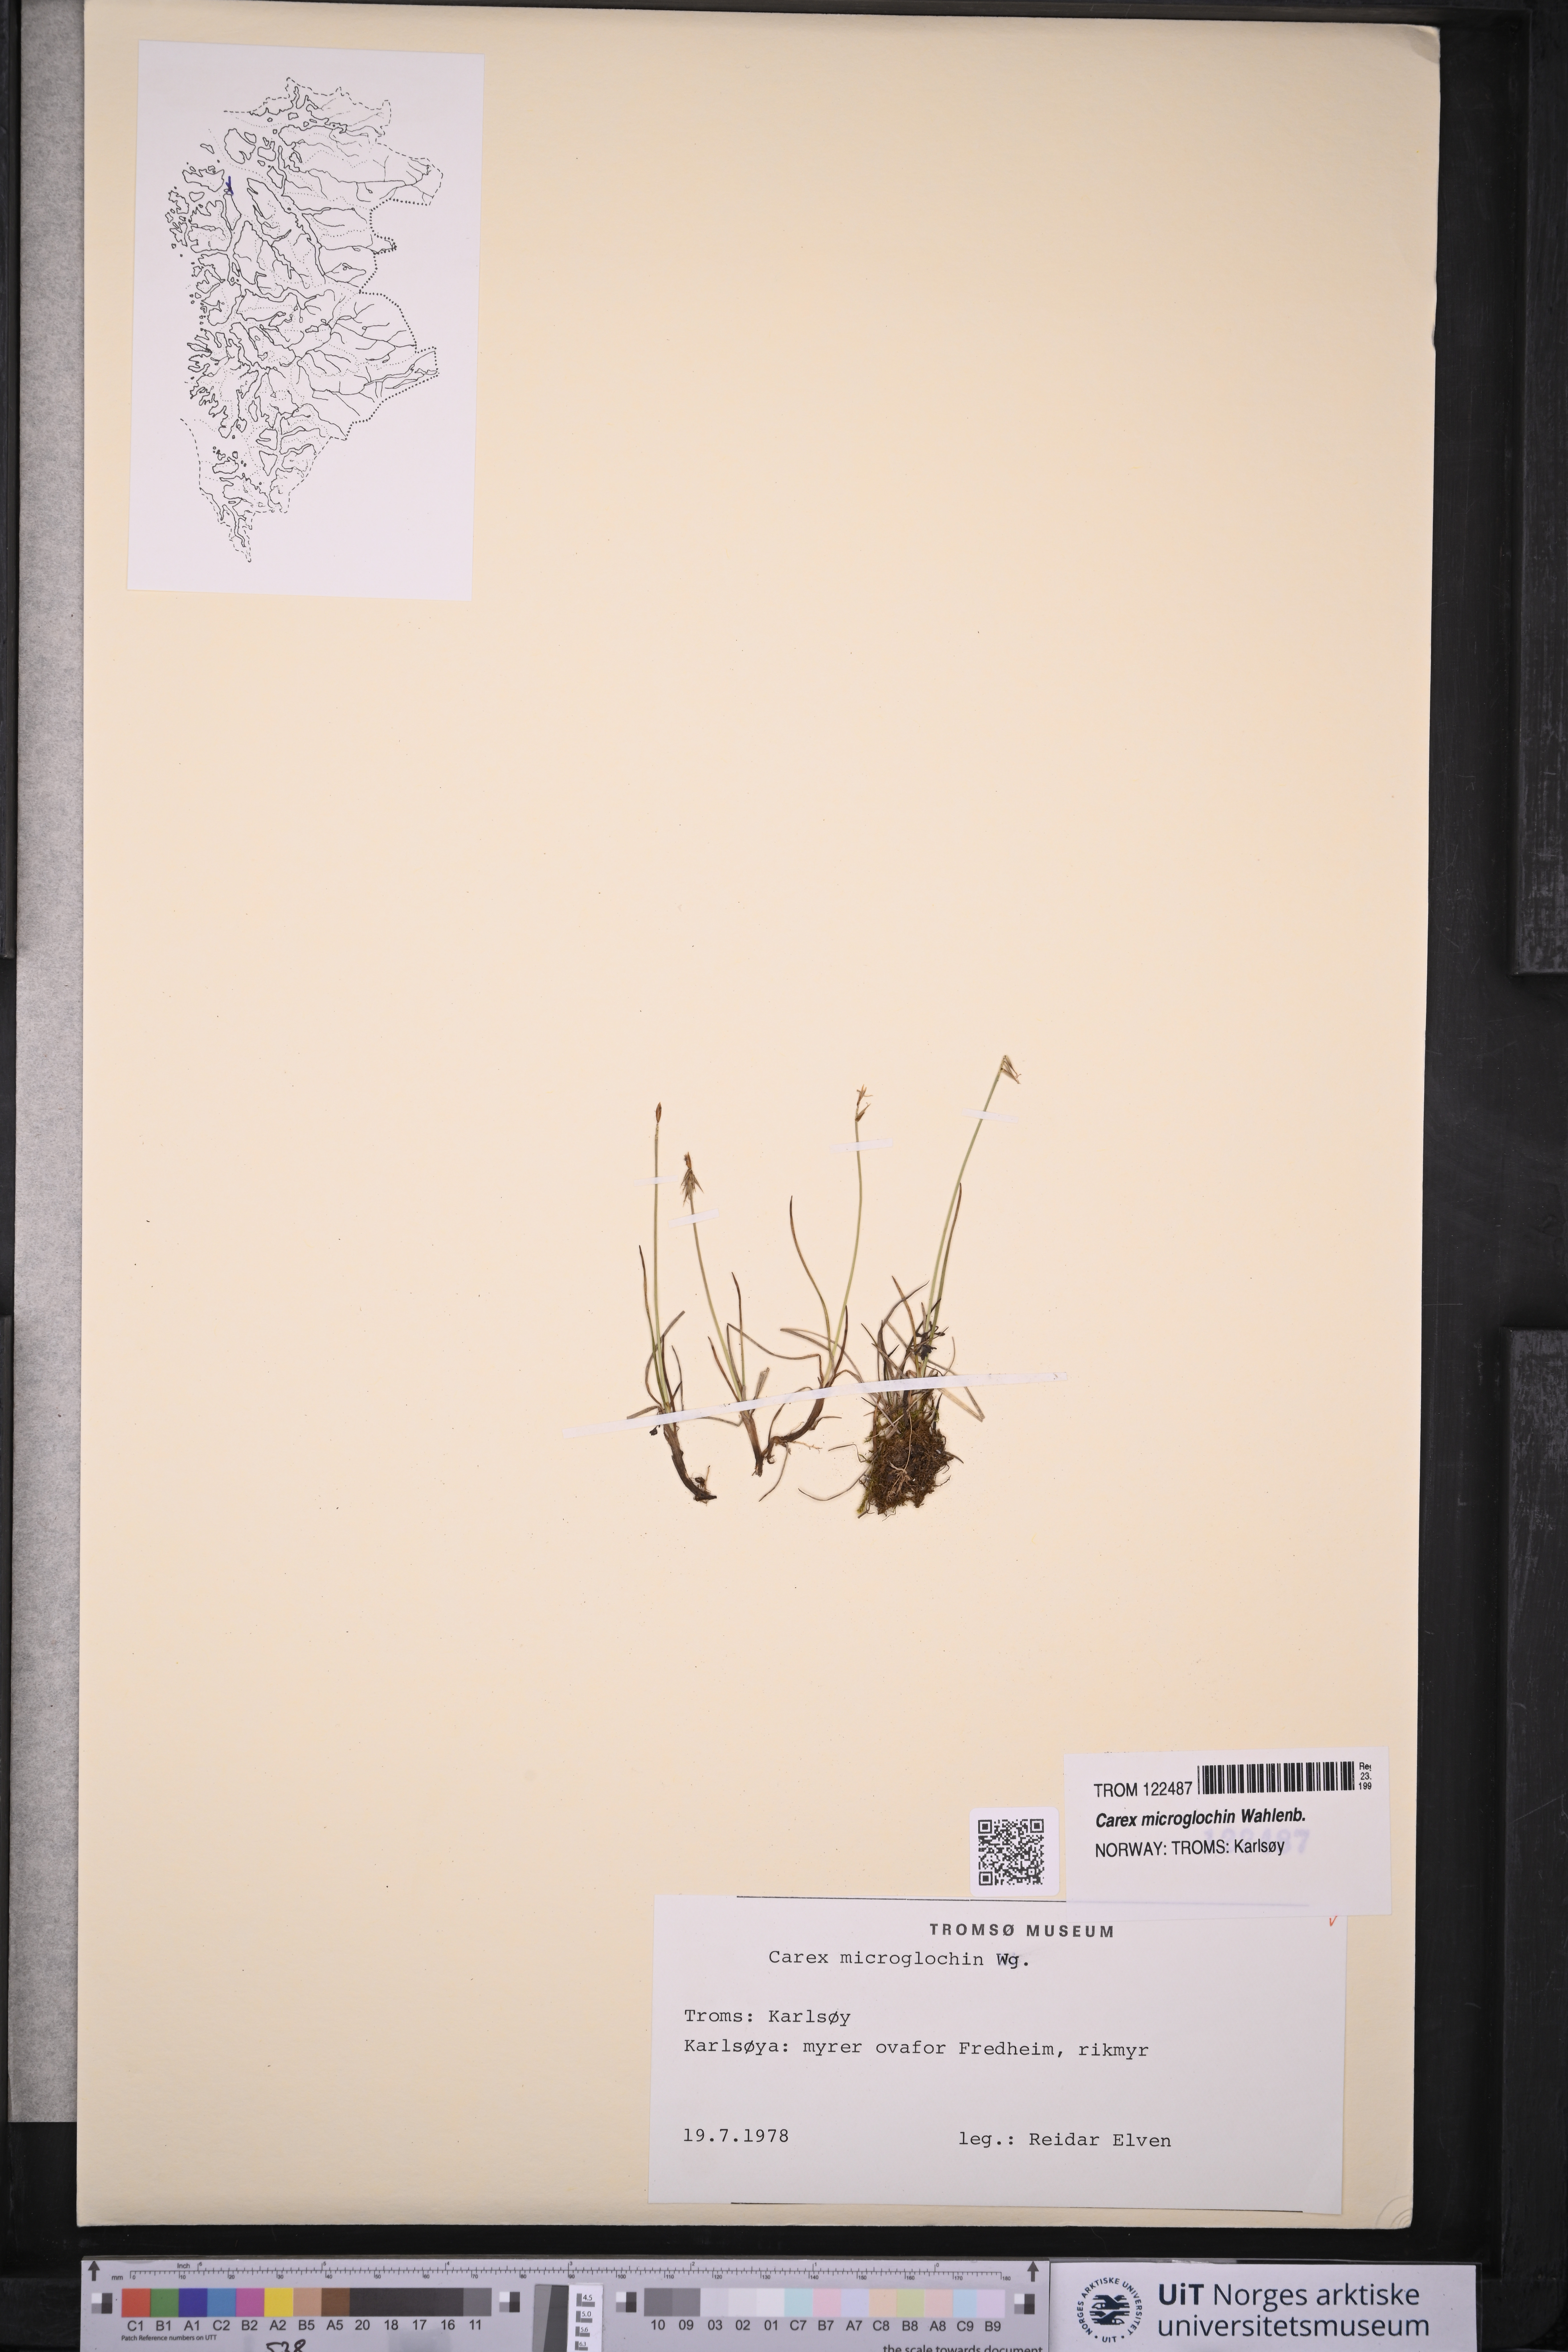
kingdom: Plantae
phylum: Tracheophyta
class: Liliopsida
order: Poales
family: Cyperaceae
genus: Carex
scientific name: Carex microglochin
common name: Bristle sedge
